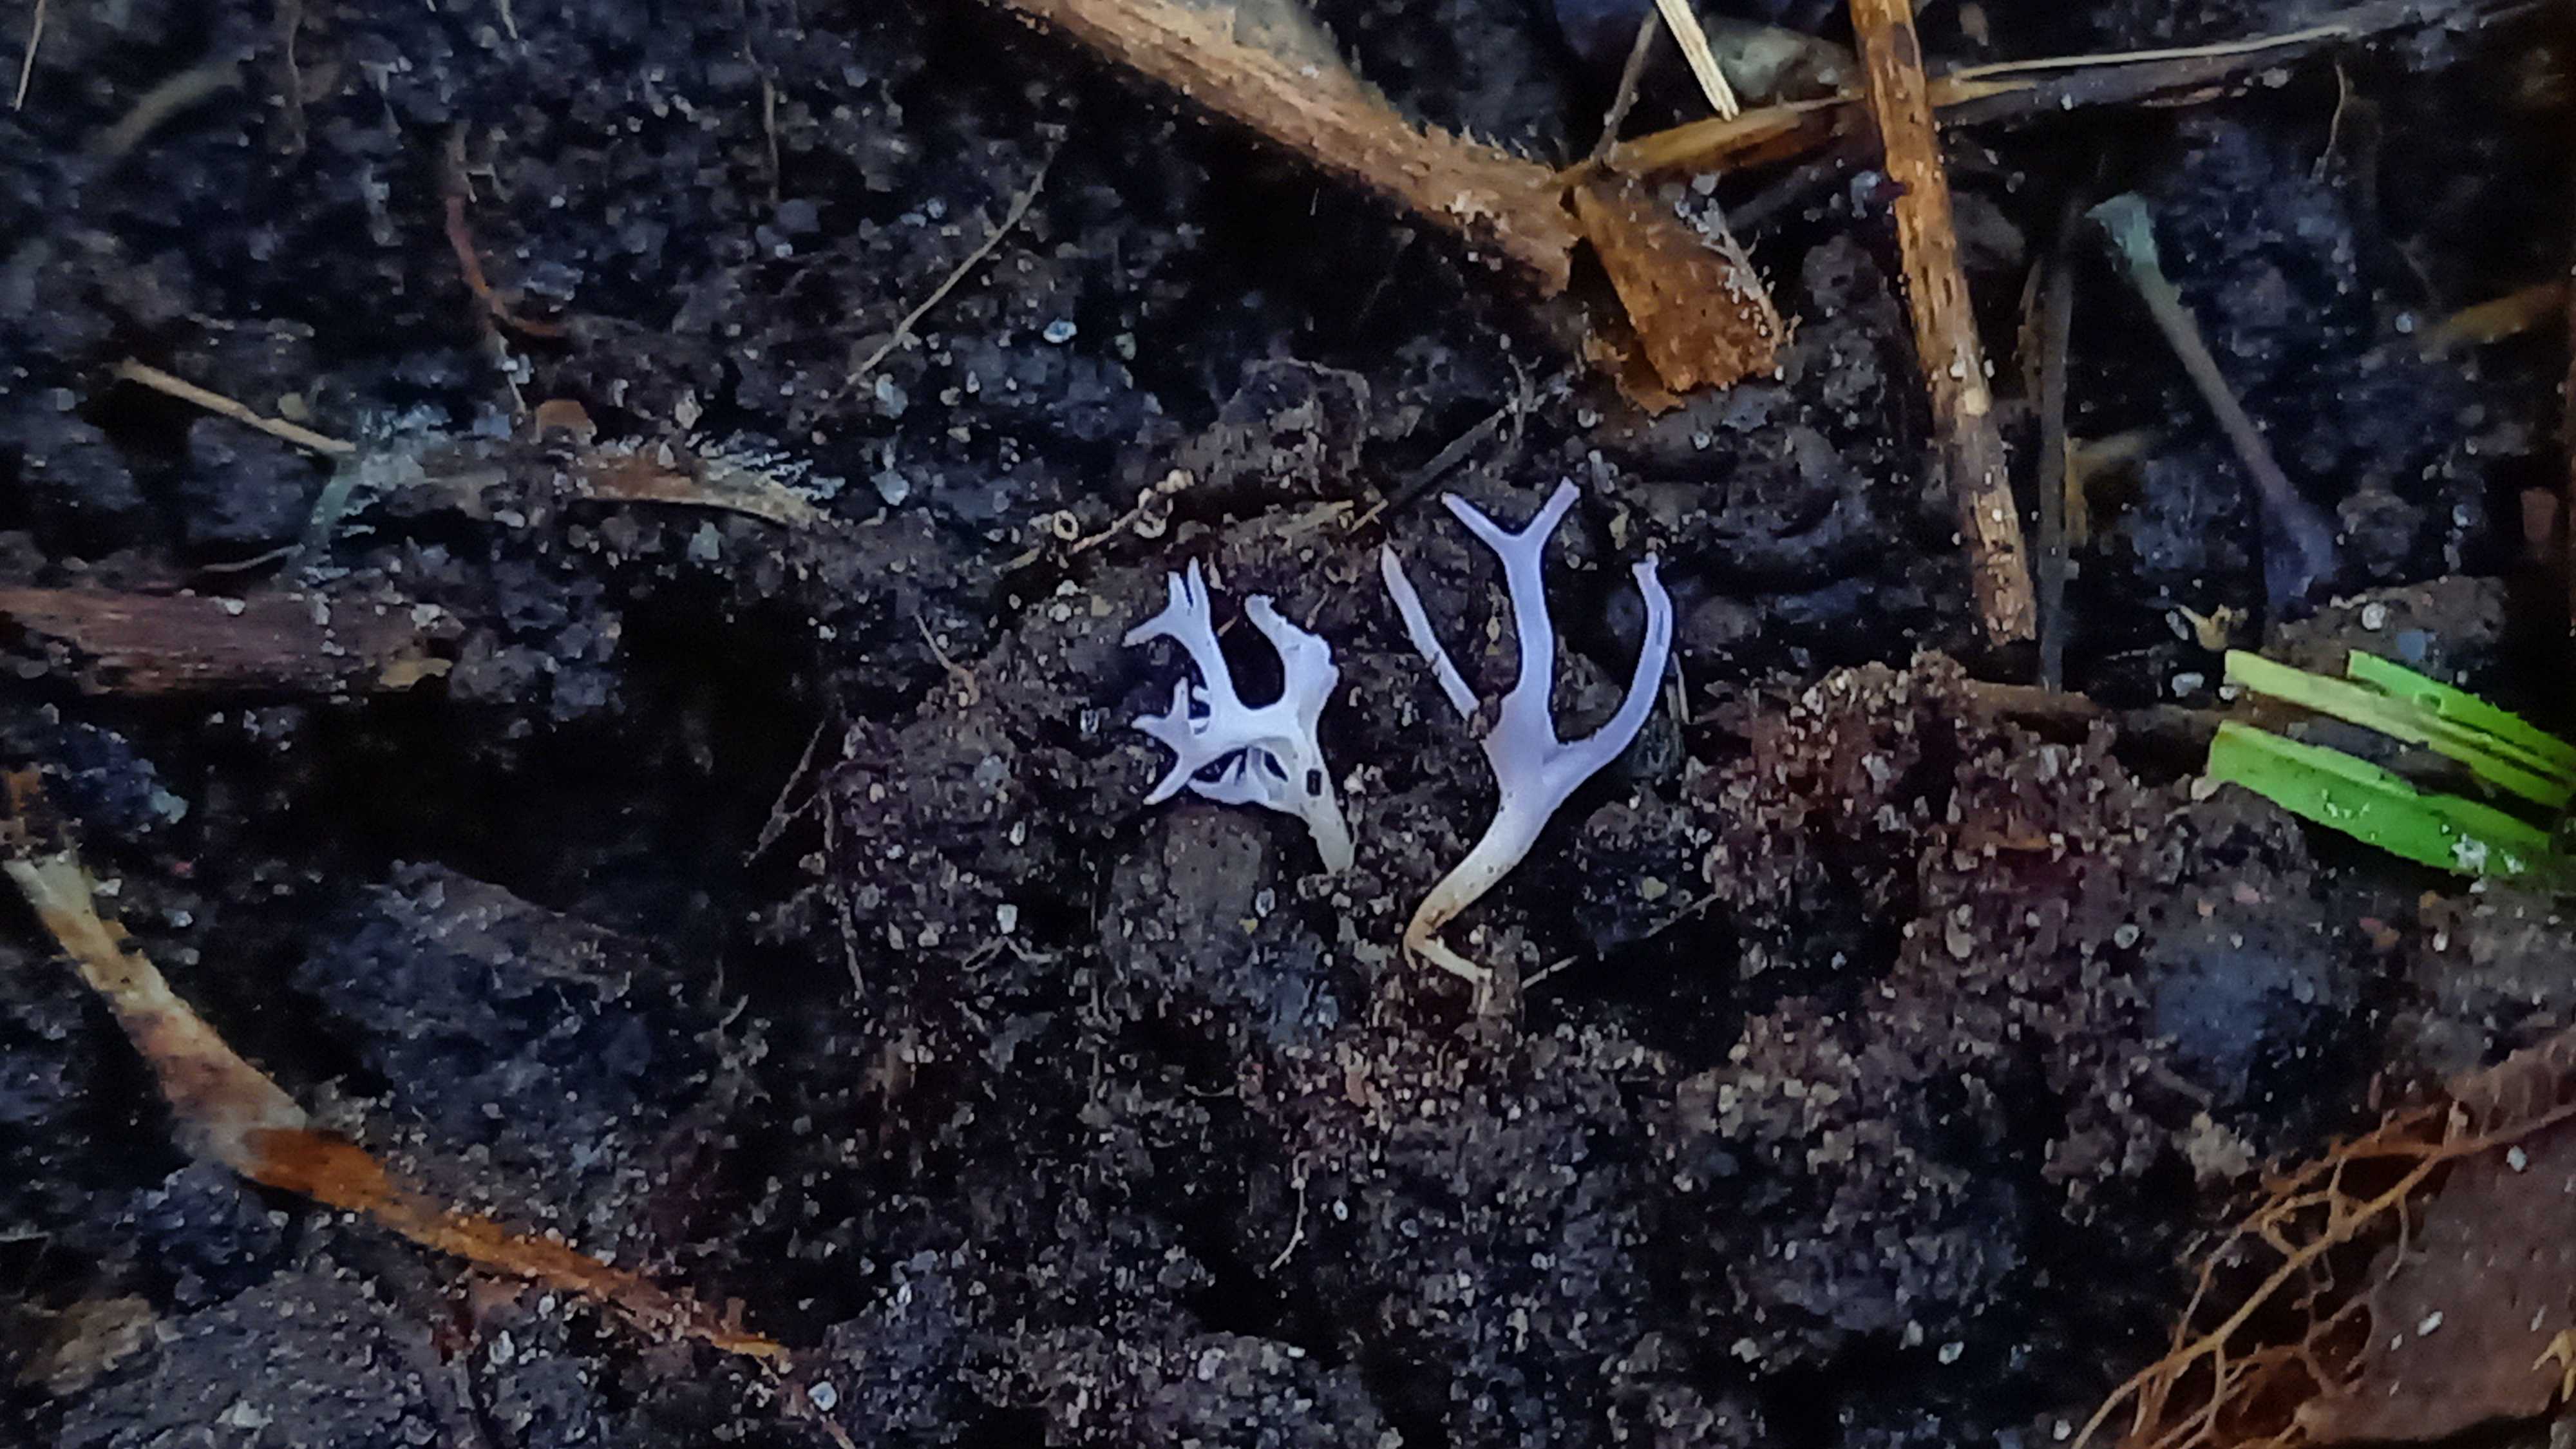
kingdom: Fungi
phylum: Basidiomycota
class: Agaricomycetes
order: Agaricales
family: Clavariaceae
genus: Ramariopsis
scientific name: Ramariopsis pulchella
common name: violet køllesvamp
